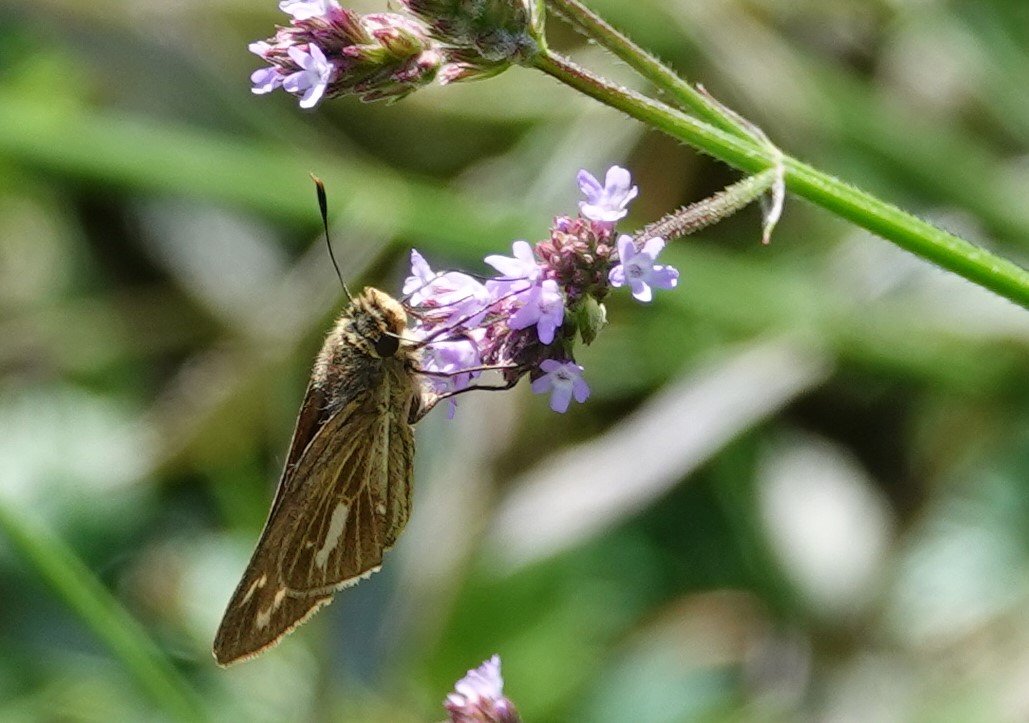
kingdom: Animalia
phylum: Arthropoda
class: Insecta
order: Lepidoptera
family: Hesperiidae
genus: Panoquina
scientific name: Panoquina panoquin
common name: Salt Marsh Skipper
